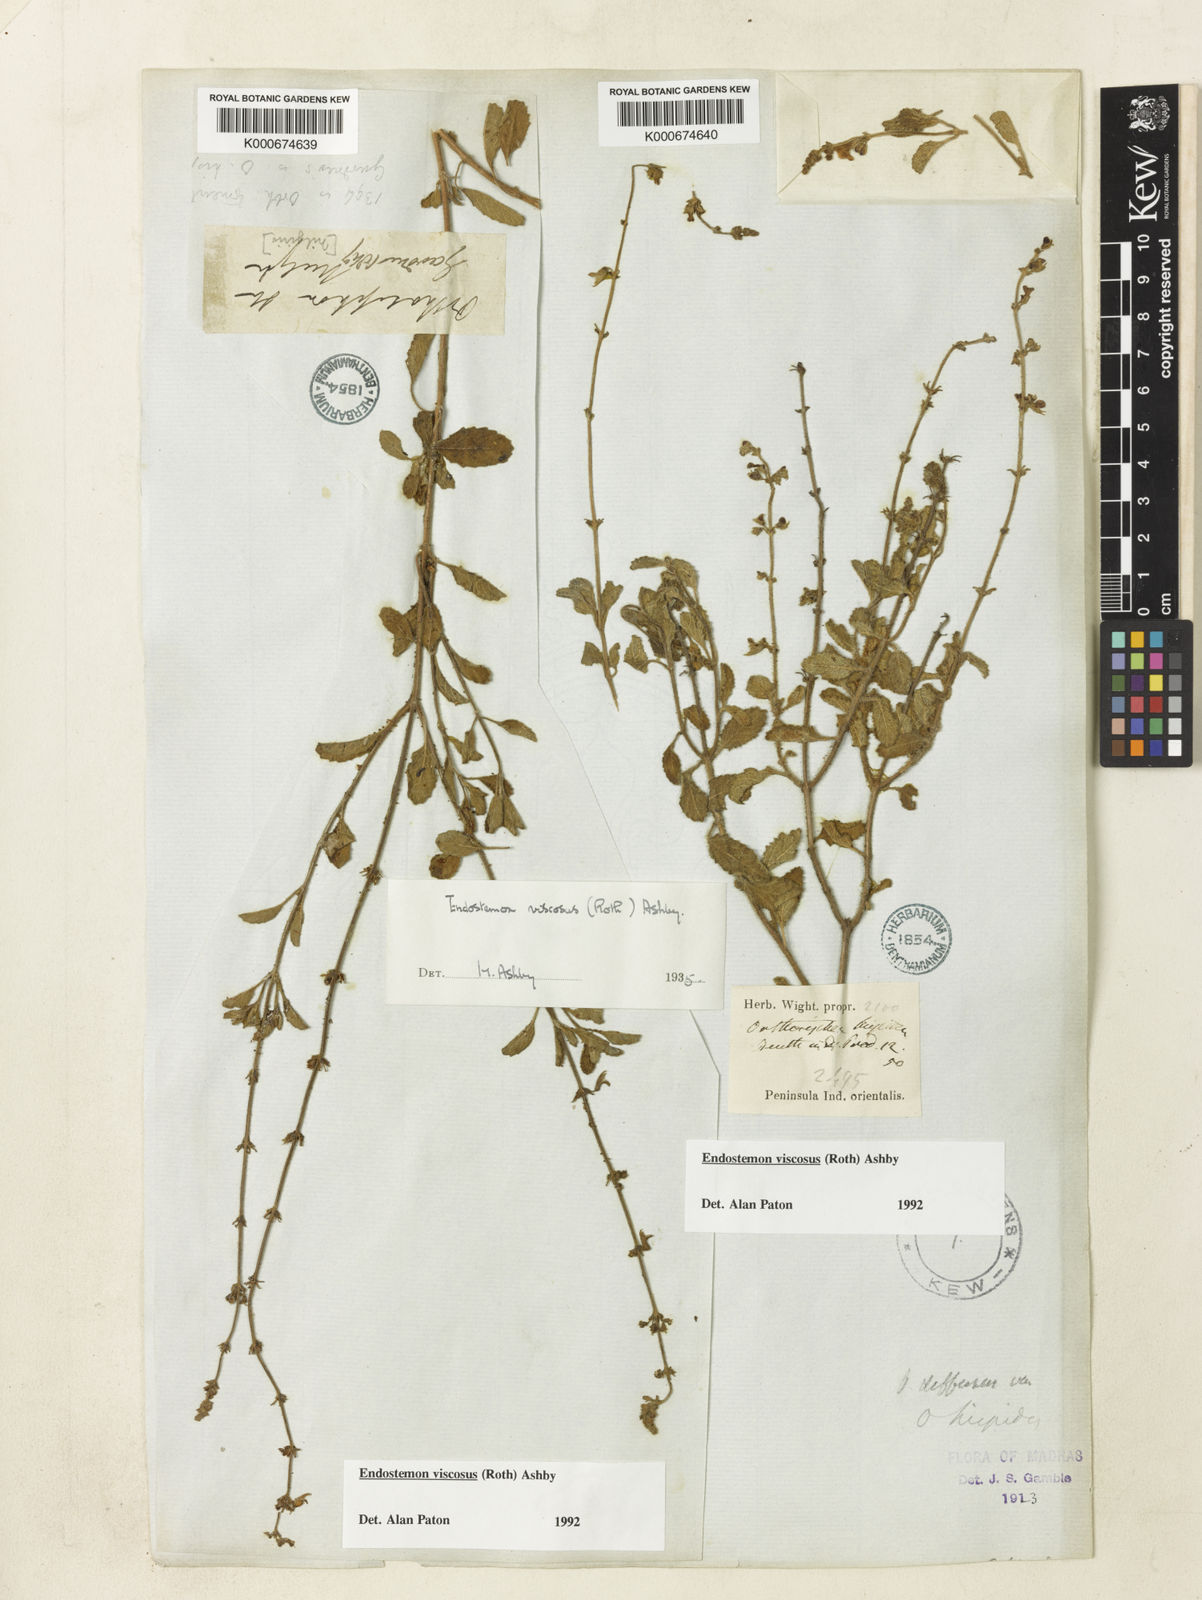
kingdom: Plantae
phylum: Tracheophyta
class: Magnoliopsida
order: Lamiales
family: Lamiaceae
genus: Endostemon
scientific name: Endostemon viscosus
